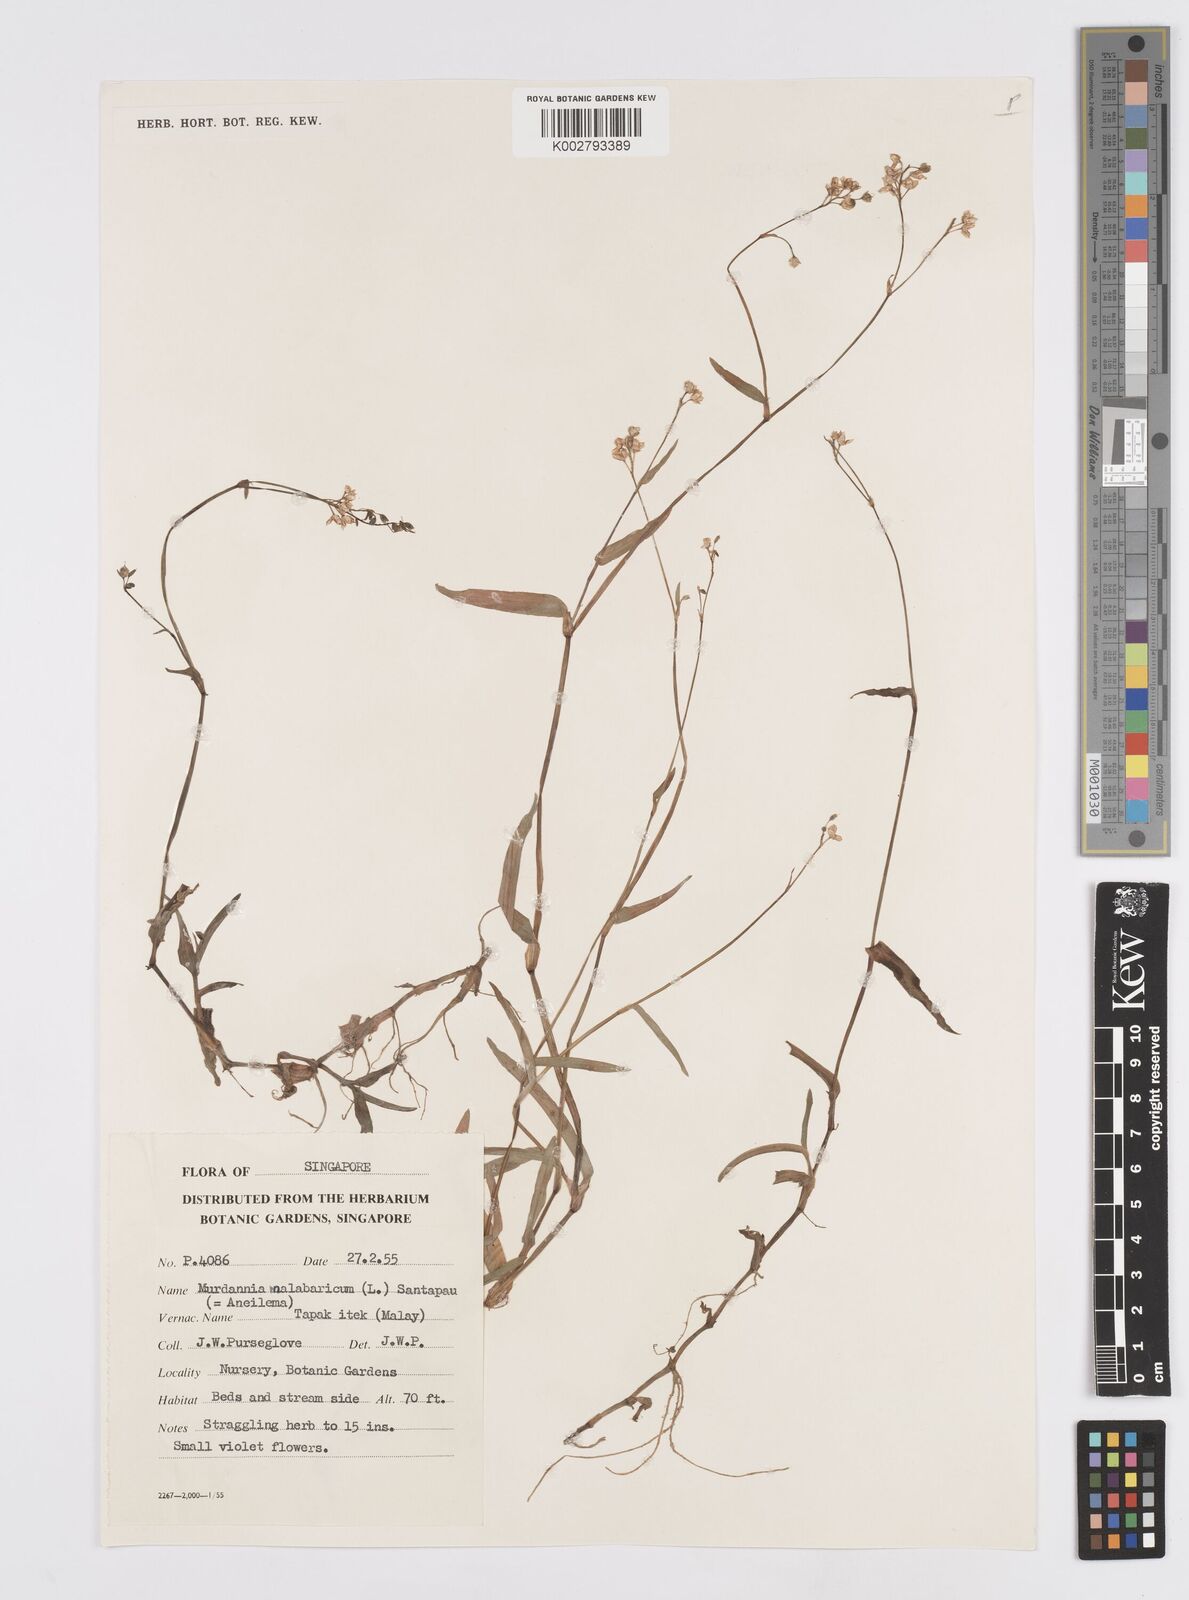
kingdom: Plantae
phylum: Tracheophyta
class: Liliopsida
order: Commelinales
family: Commelinaceae
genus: Murdannia
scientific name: Murdannia
